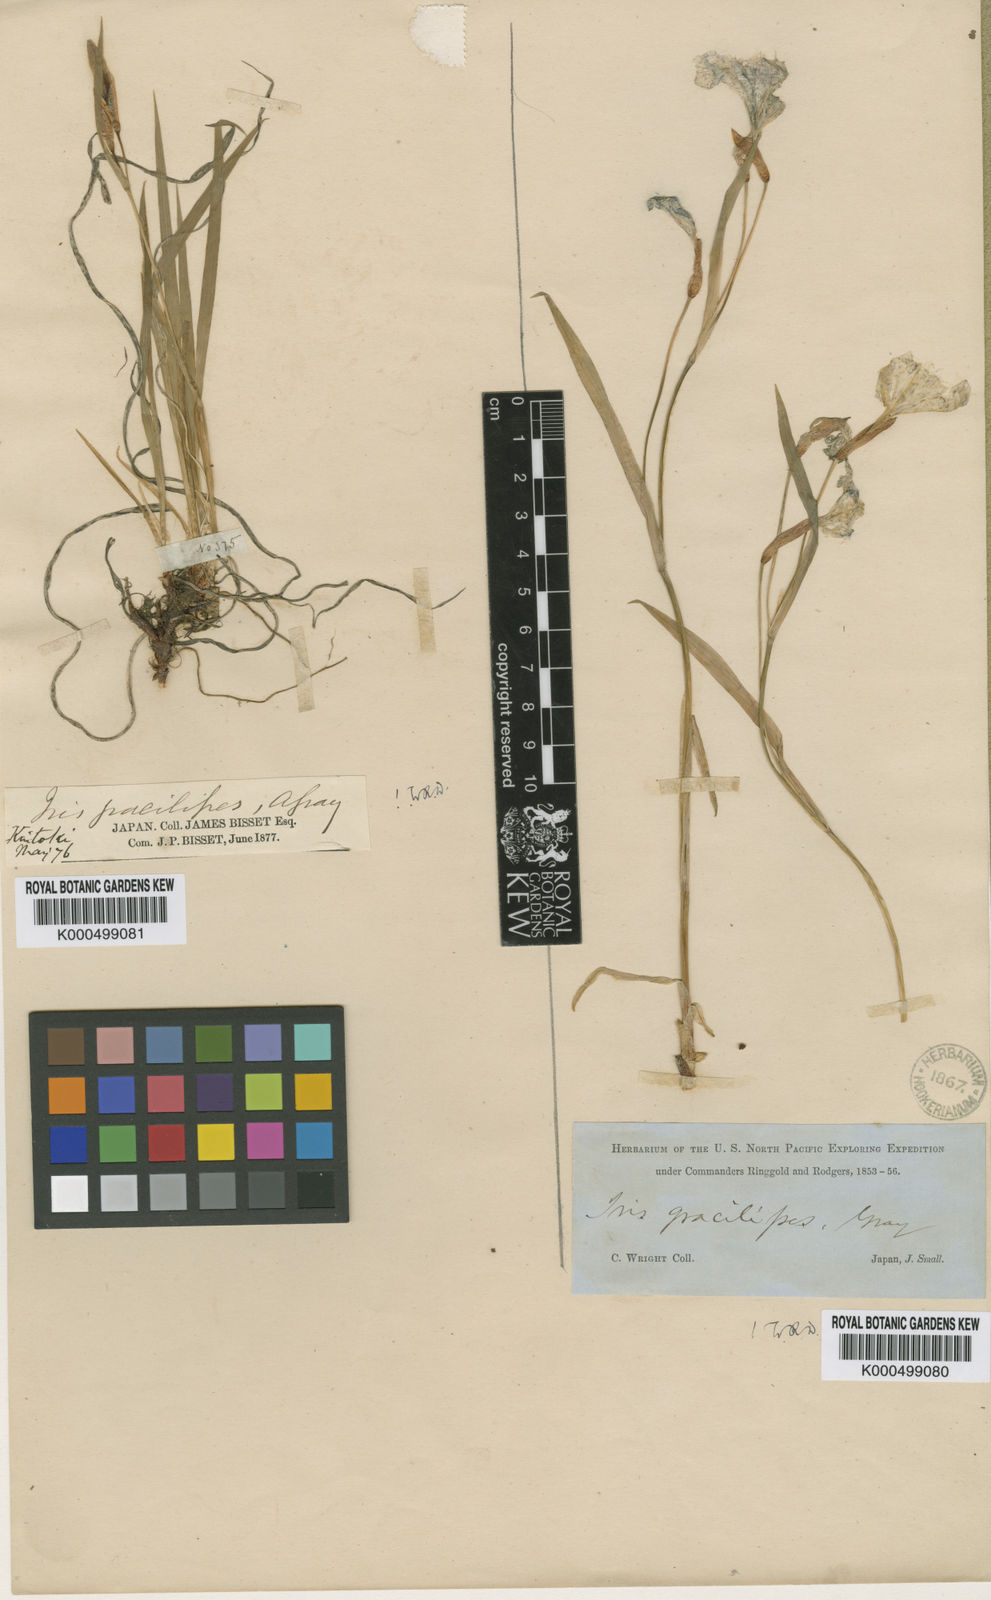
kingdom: Plantae
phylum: Tracheophyta
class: Liliopsida
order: Asparagales
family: Iridaceae
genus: Iris
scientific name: Iris gracilipes
